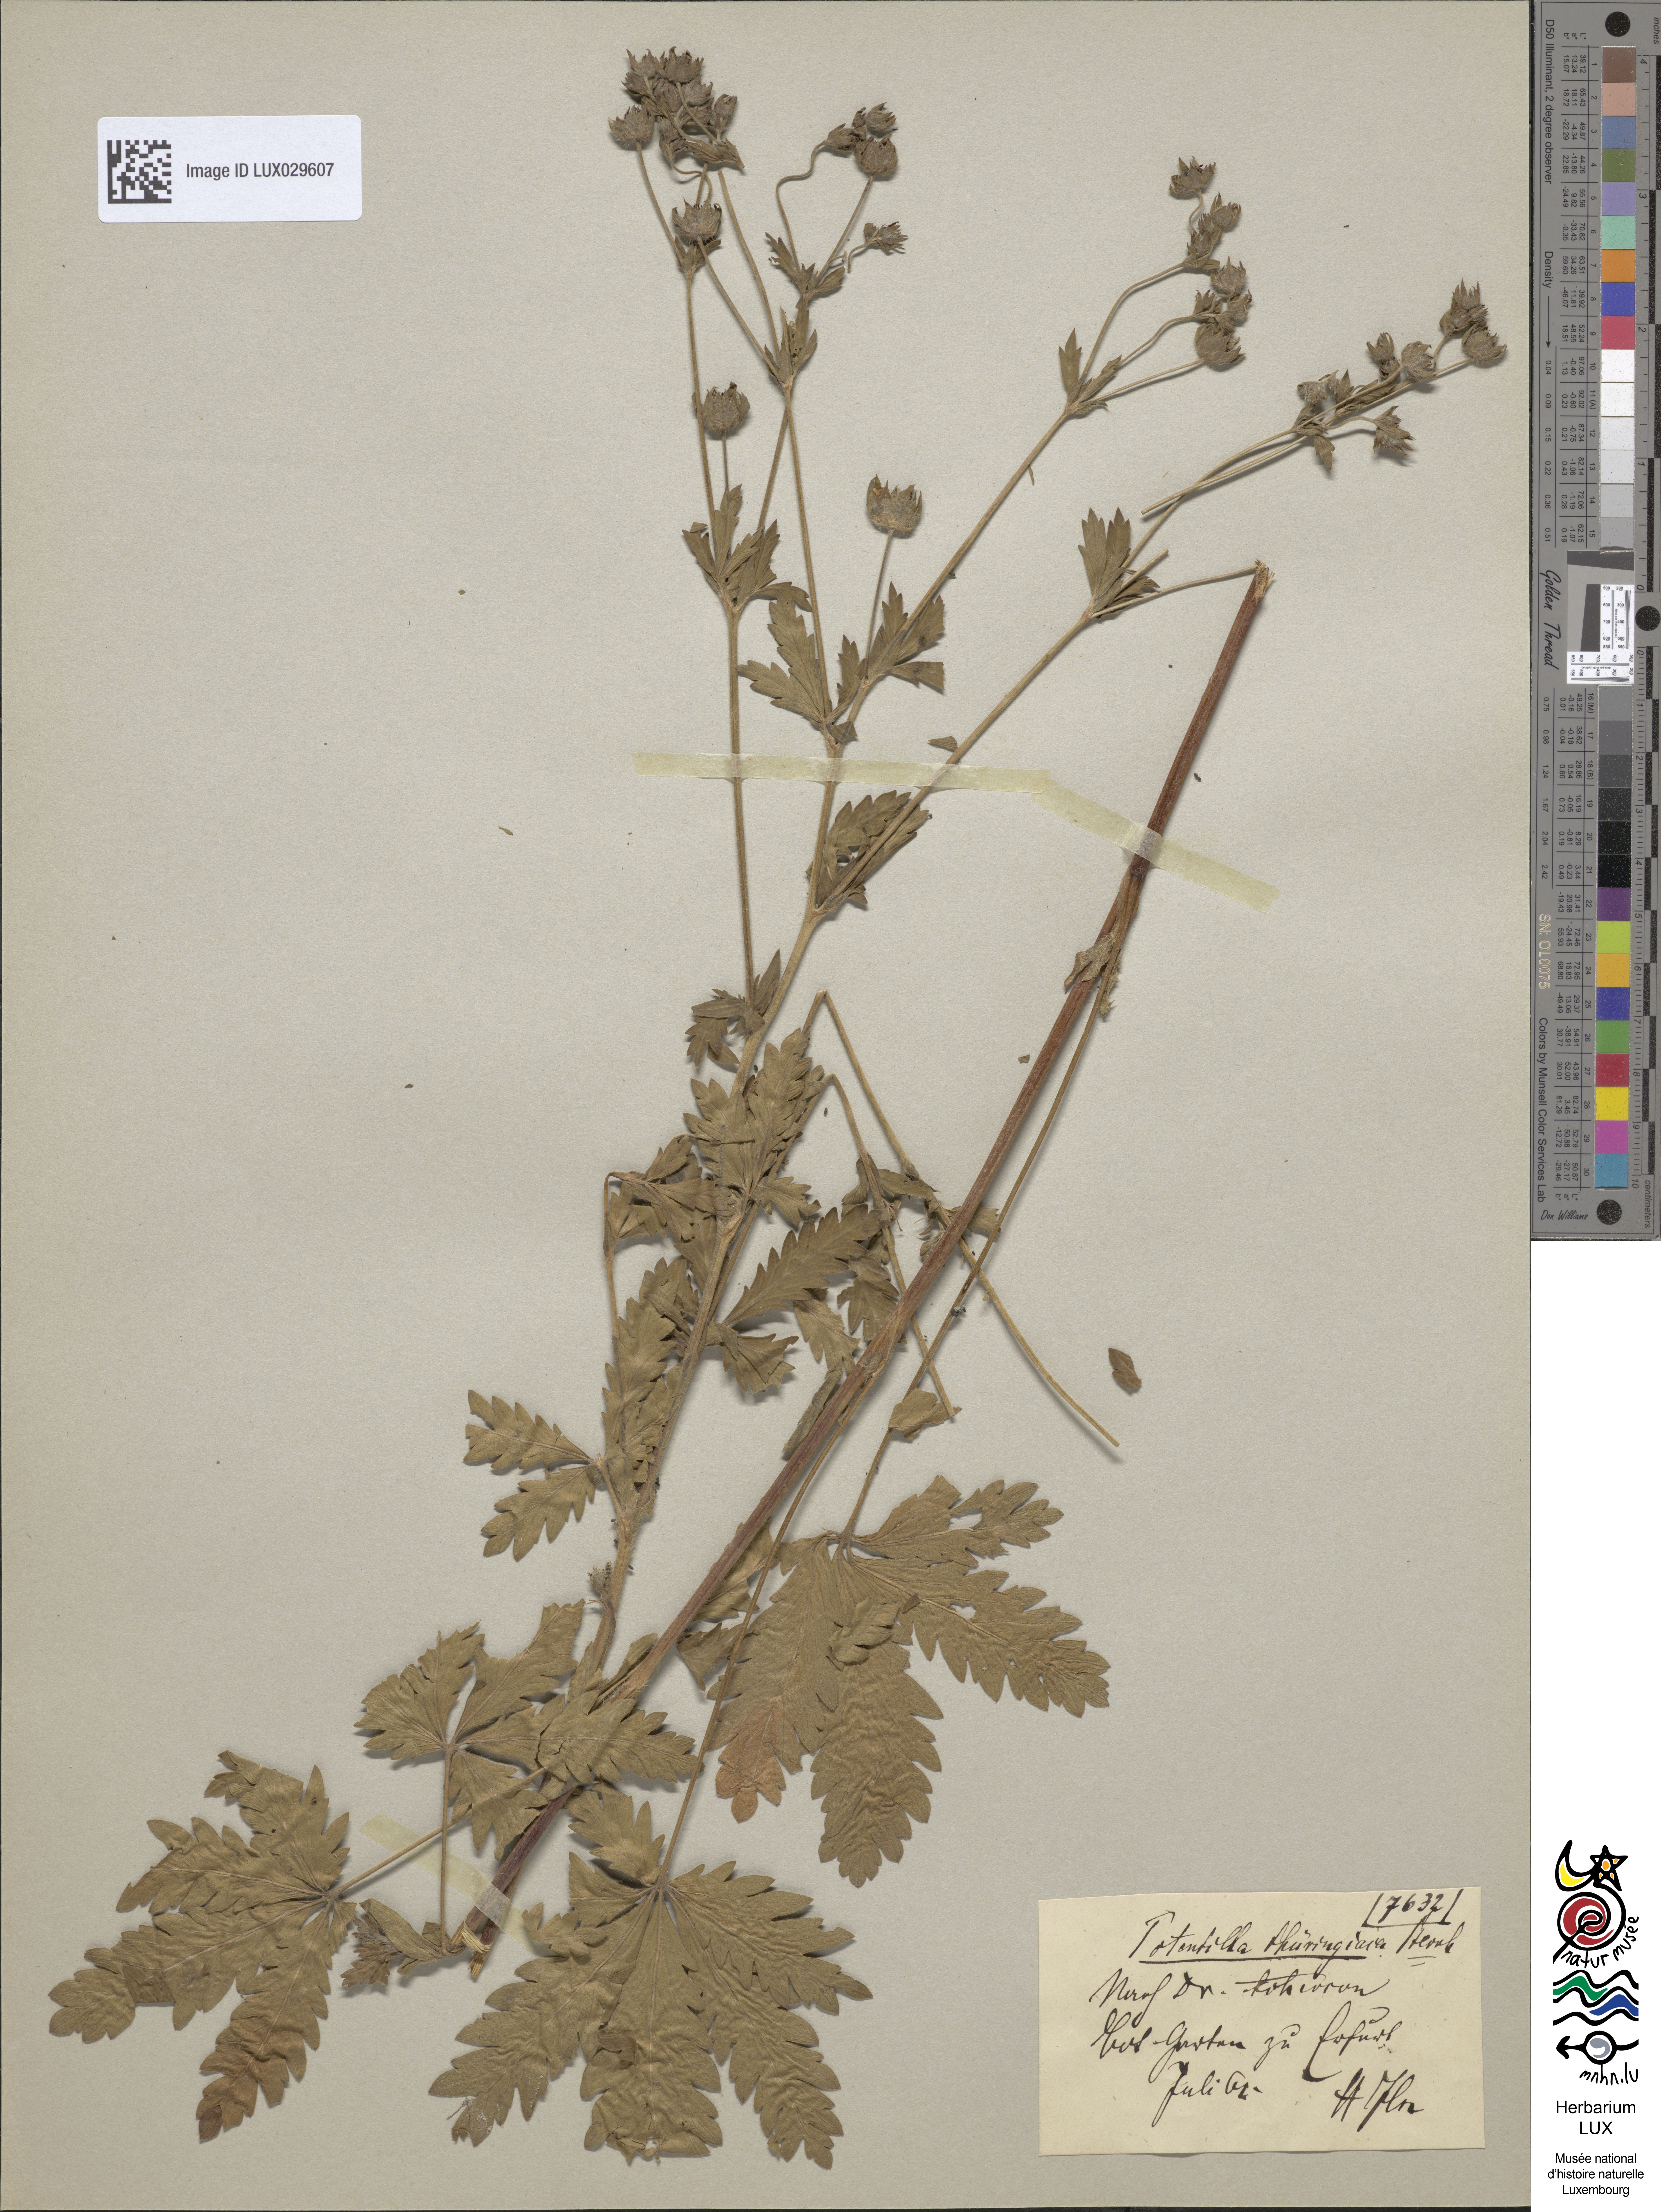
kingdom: Plantae
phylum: Tracheophyta
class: Magnoliopsida
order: Rosales
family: Rosaceae
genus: Potentilla
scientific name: Potentilla thuringiaca
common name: European cinquefoil
